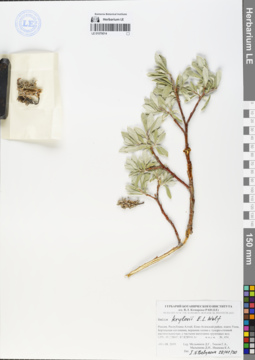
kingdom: Plantae
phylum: Tracheophyta
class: Magnoliopsida
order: Malpighiales
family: Salicaceae
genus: Salix
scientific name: Salix krylovii
